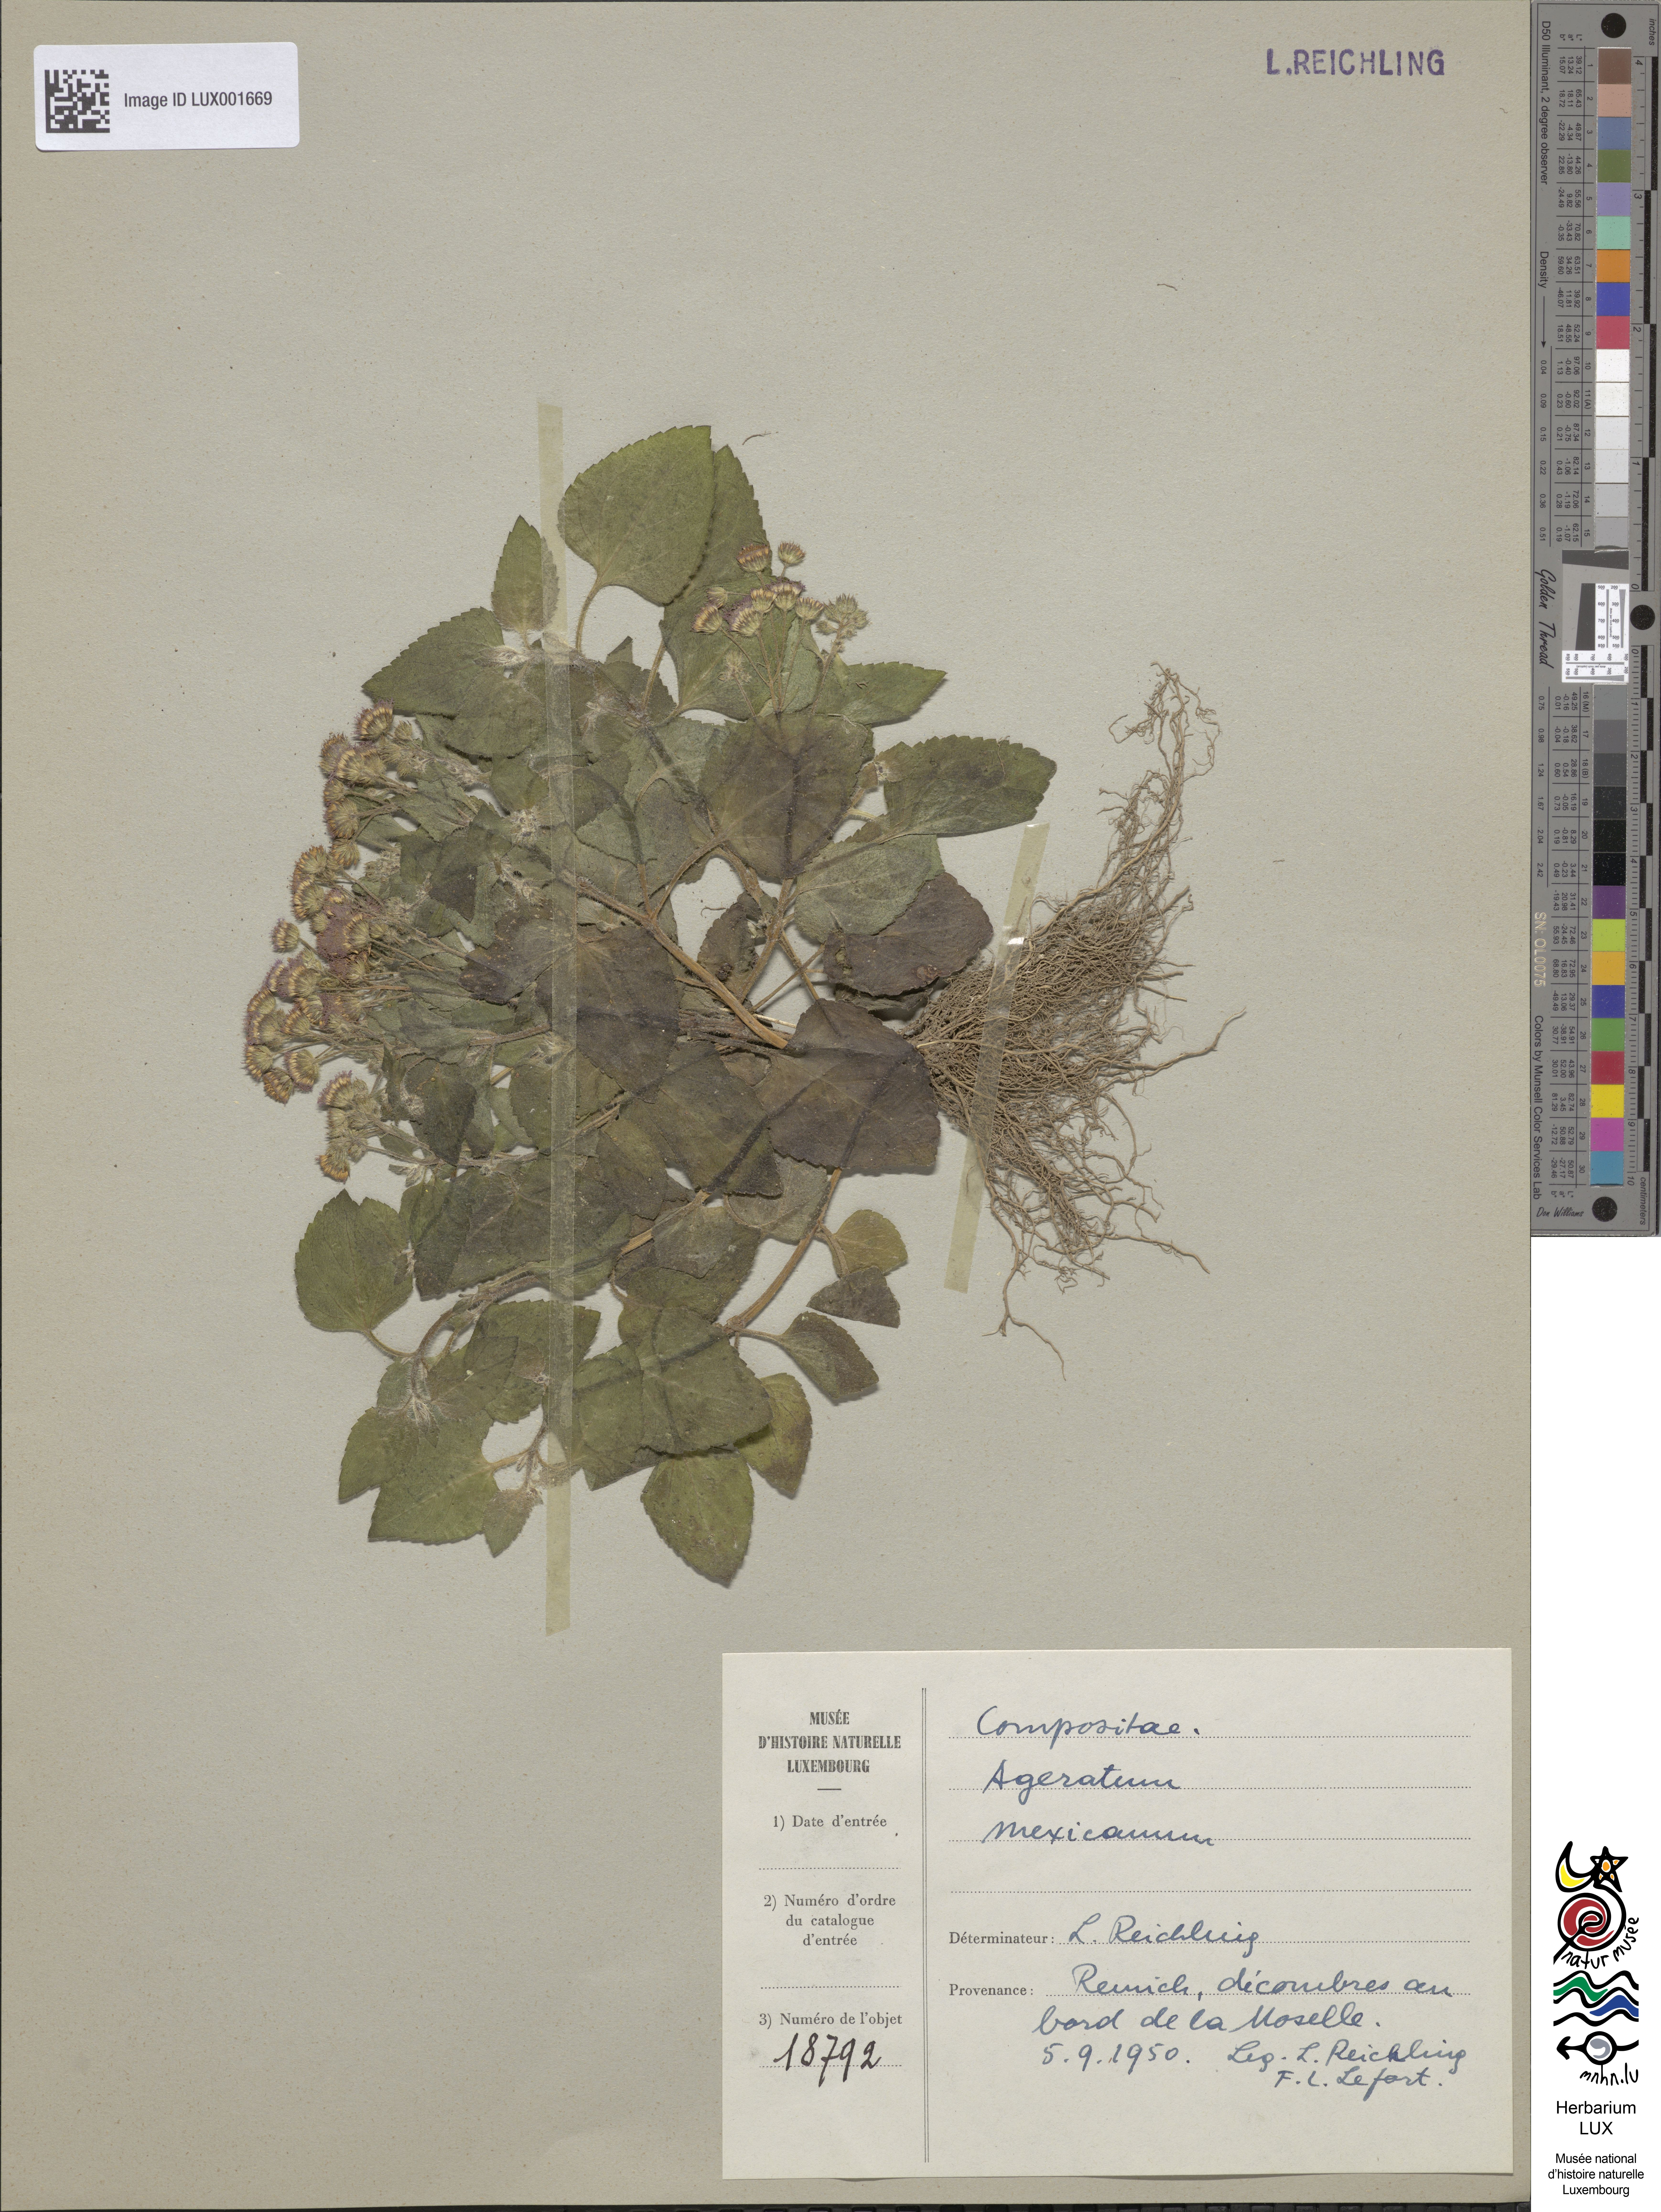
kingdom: Plantae
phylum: Tracheophyta
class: Magnoliopsida
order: Asterales
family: Asteraceae
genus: Ageratum
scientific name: Ageratum houstonianum
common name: Bluemink
